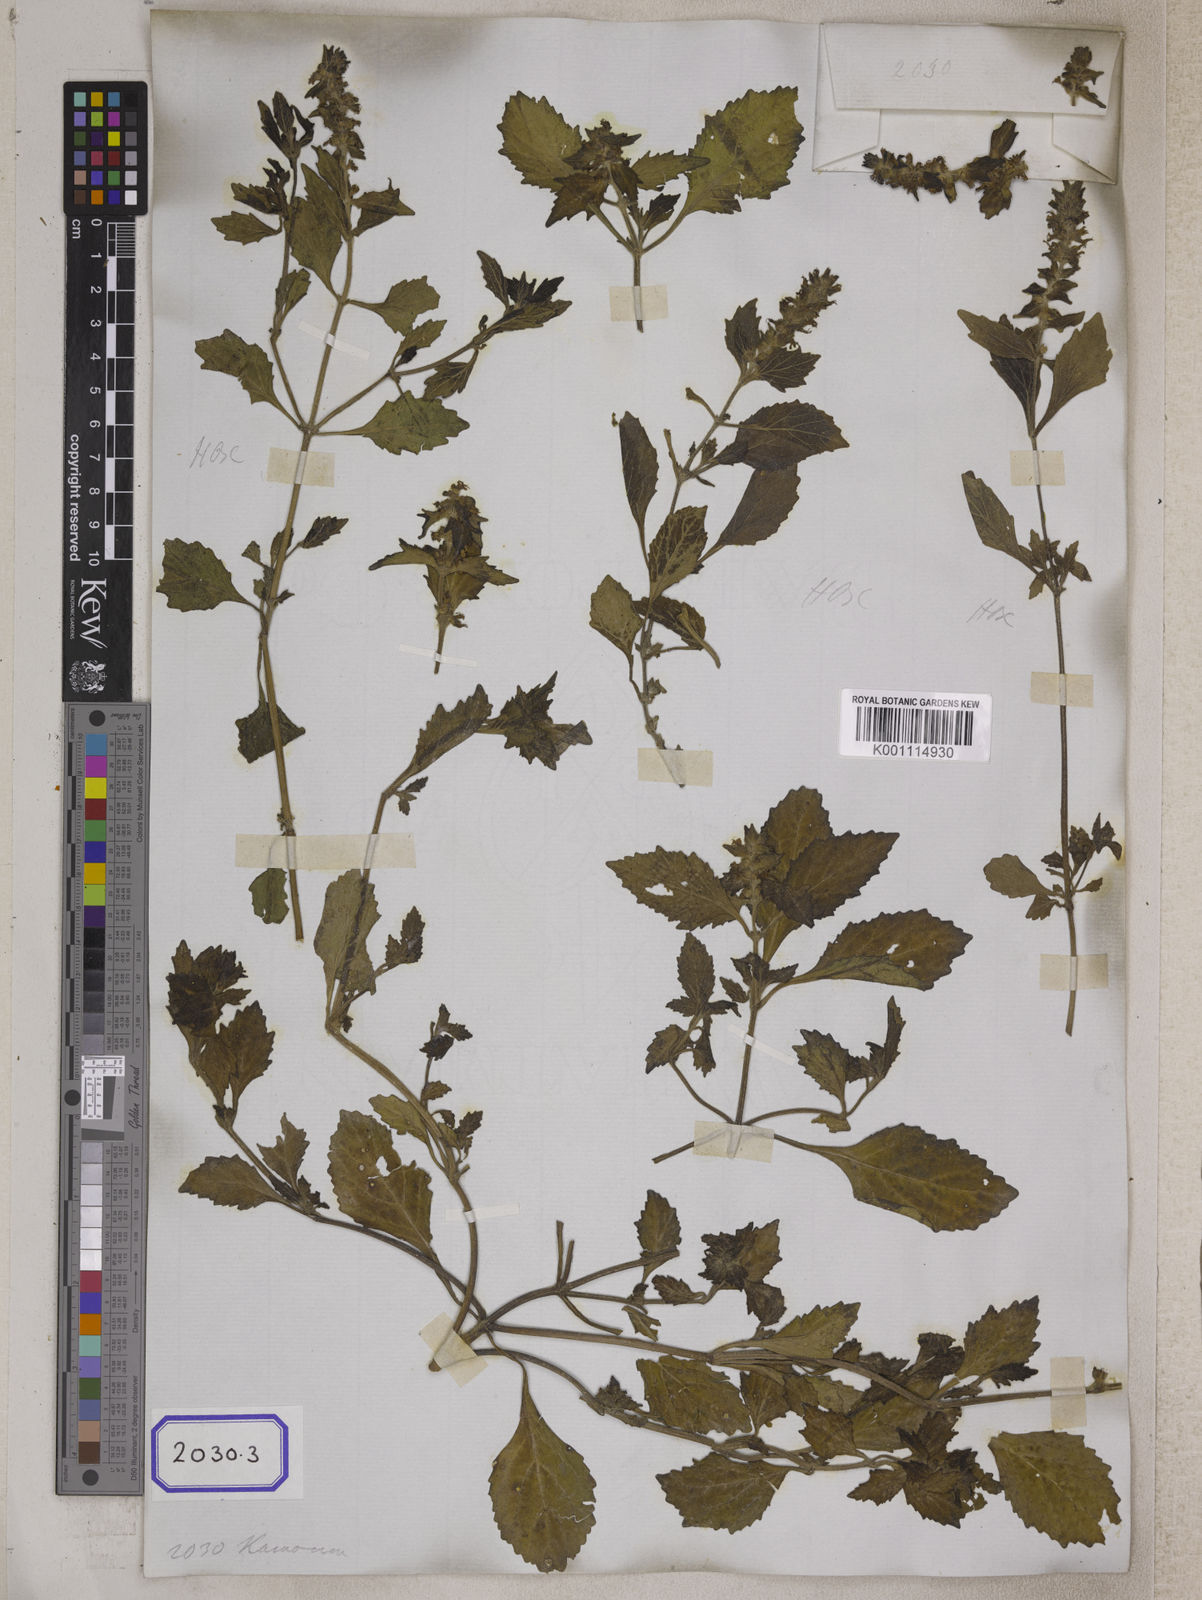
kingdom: Plantae
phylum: Tracheophyta
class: Magnoliopsida
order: Lamiales
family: Lamiaceae
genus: Ajuga
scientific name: Ajuga
